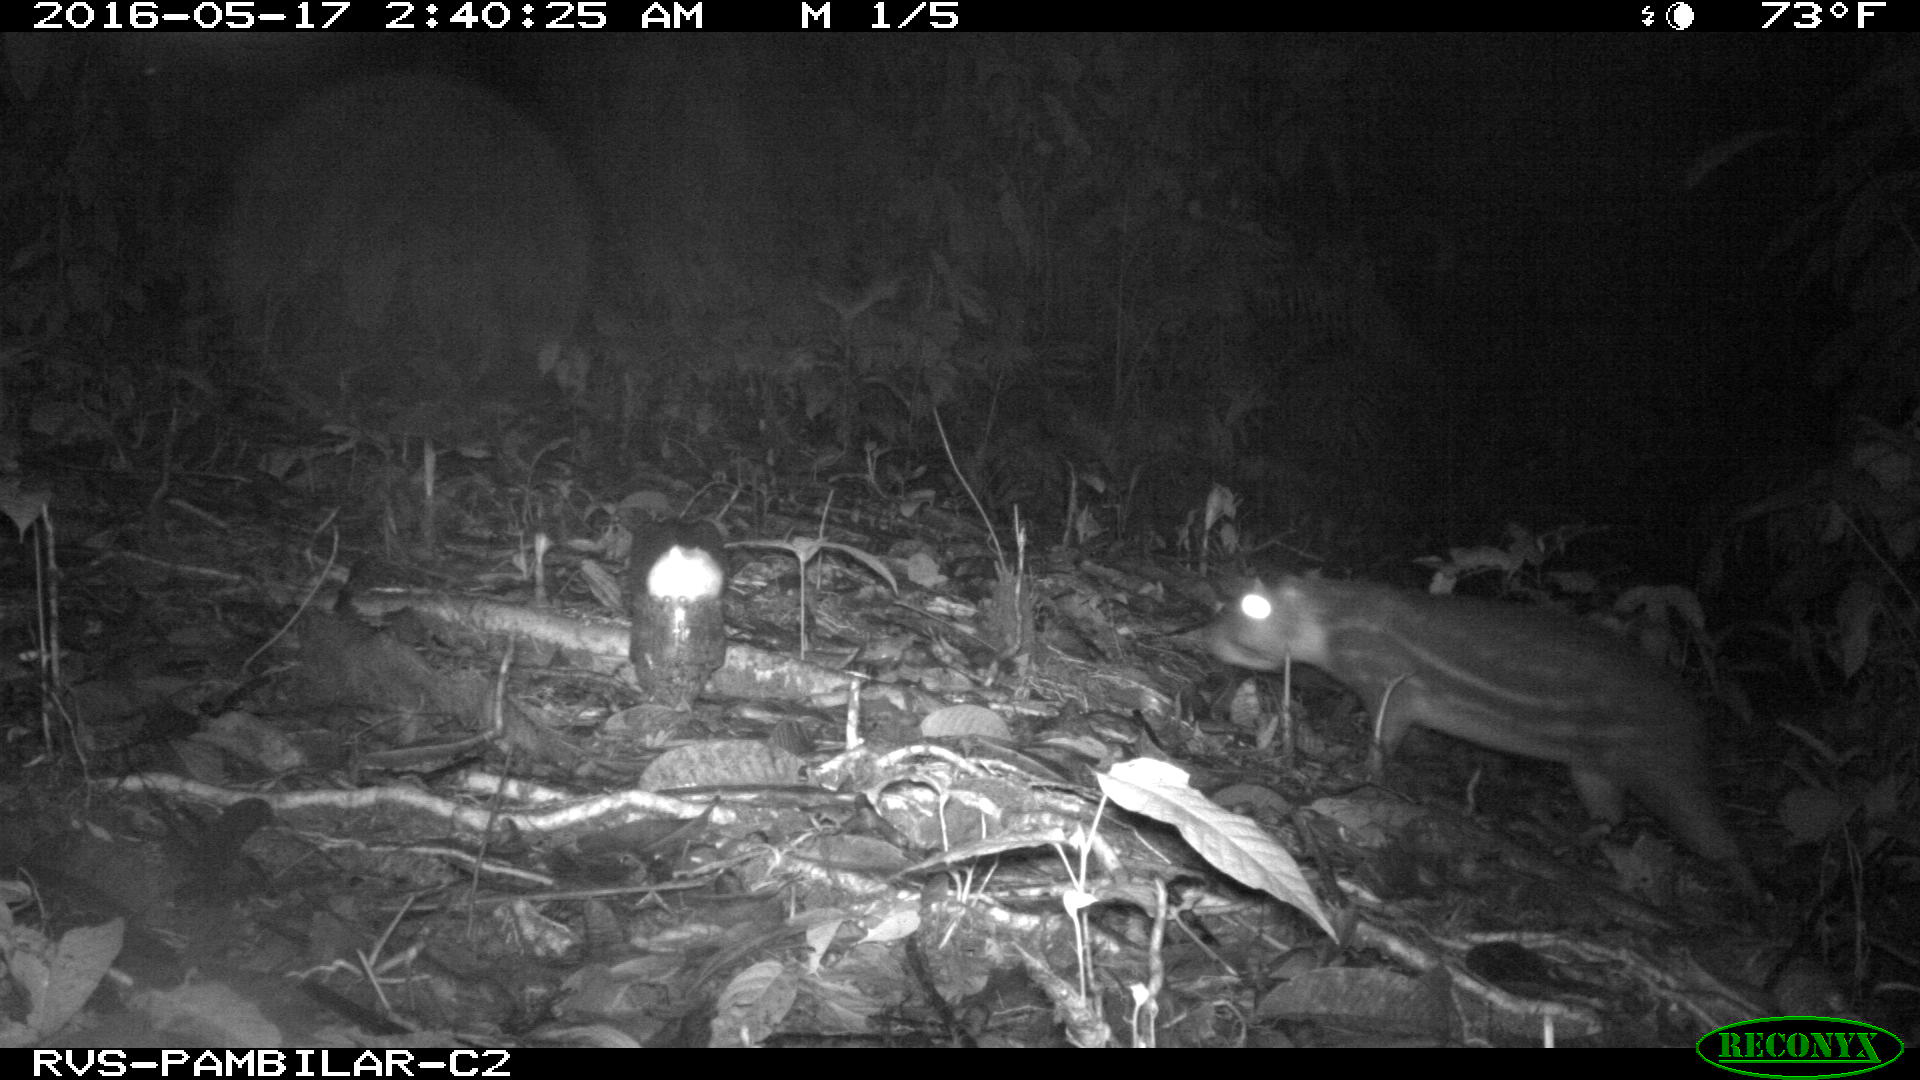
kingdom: Animalia
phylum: Chordata
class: Mammalia
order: Rodentia
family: Cuniculidae
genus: Cuniculus
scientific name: Cuniculus paca
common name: Lowland paca
